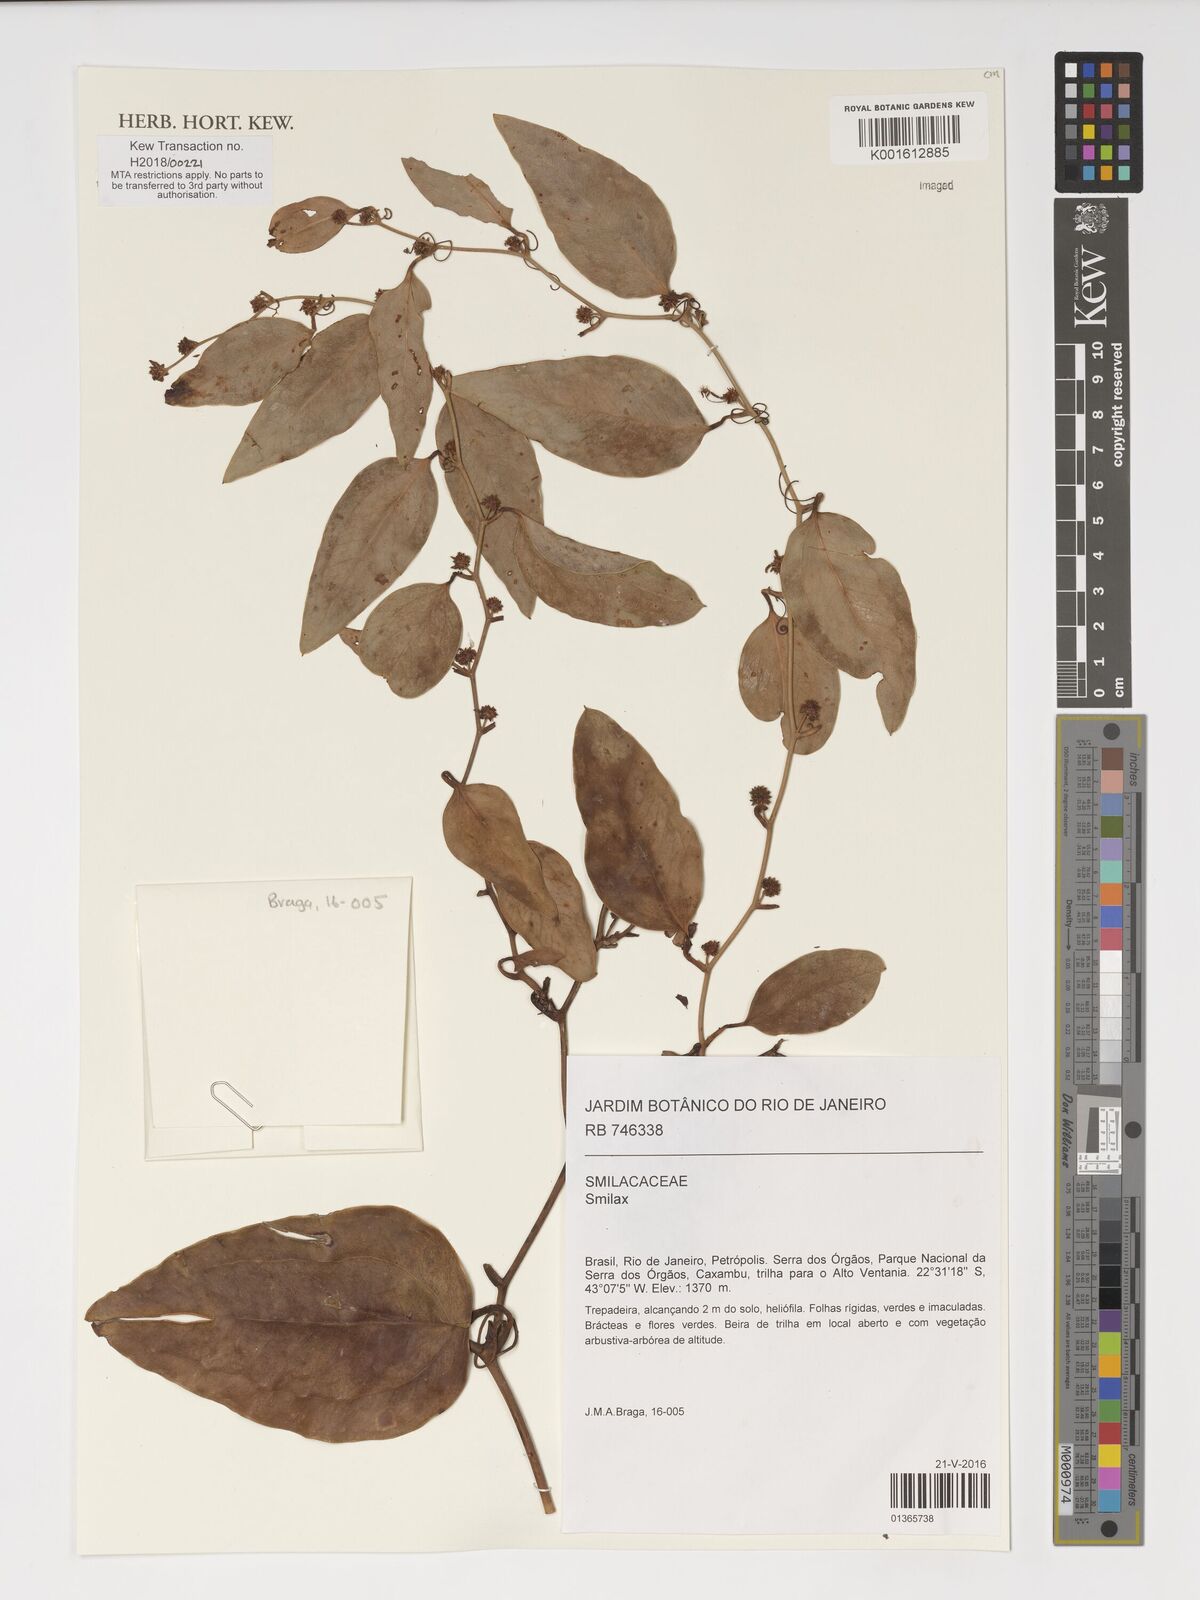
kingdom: Plantae
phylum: Tracheophyta
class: Liliopsida
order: Liliales
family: Smilacaceae
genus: Smilax
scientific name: Smilax
